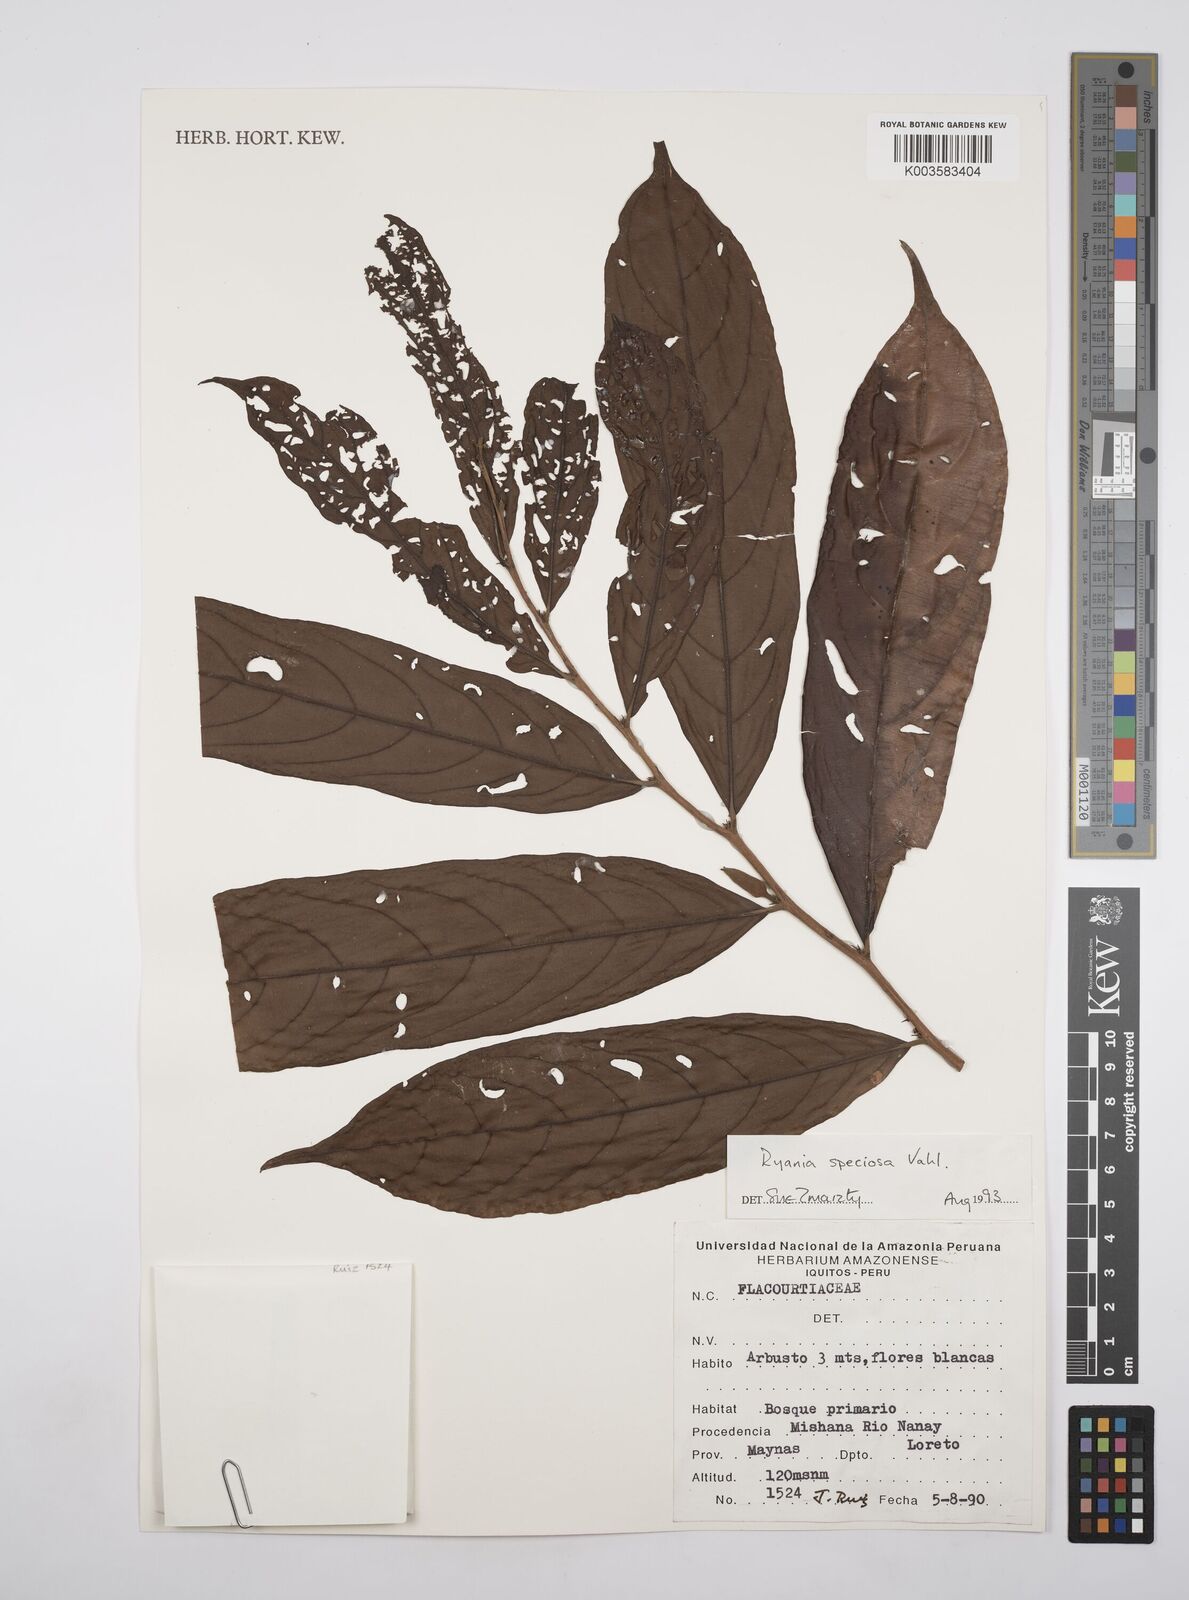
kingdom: Plantae
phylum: Tracheophyta
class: Magnoliopsida
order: Malpighiales
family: Salicaceae
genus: Ryania
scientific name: Ryania speciosa
